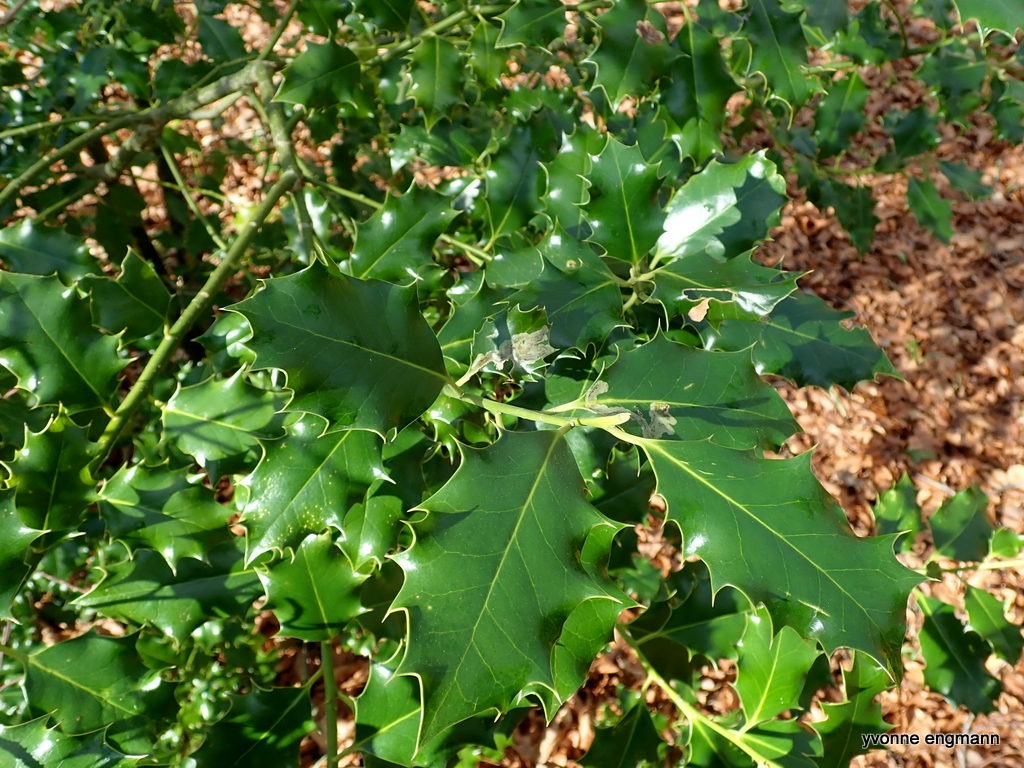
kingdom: Plantae
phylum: Tracheophyta
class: Magnoliopsida
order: Aquifoliales
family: Aquifoliaceae
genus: Ilex
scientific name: Ilex aquifolium
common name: Kristtorn
